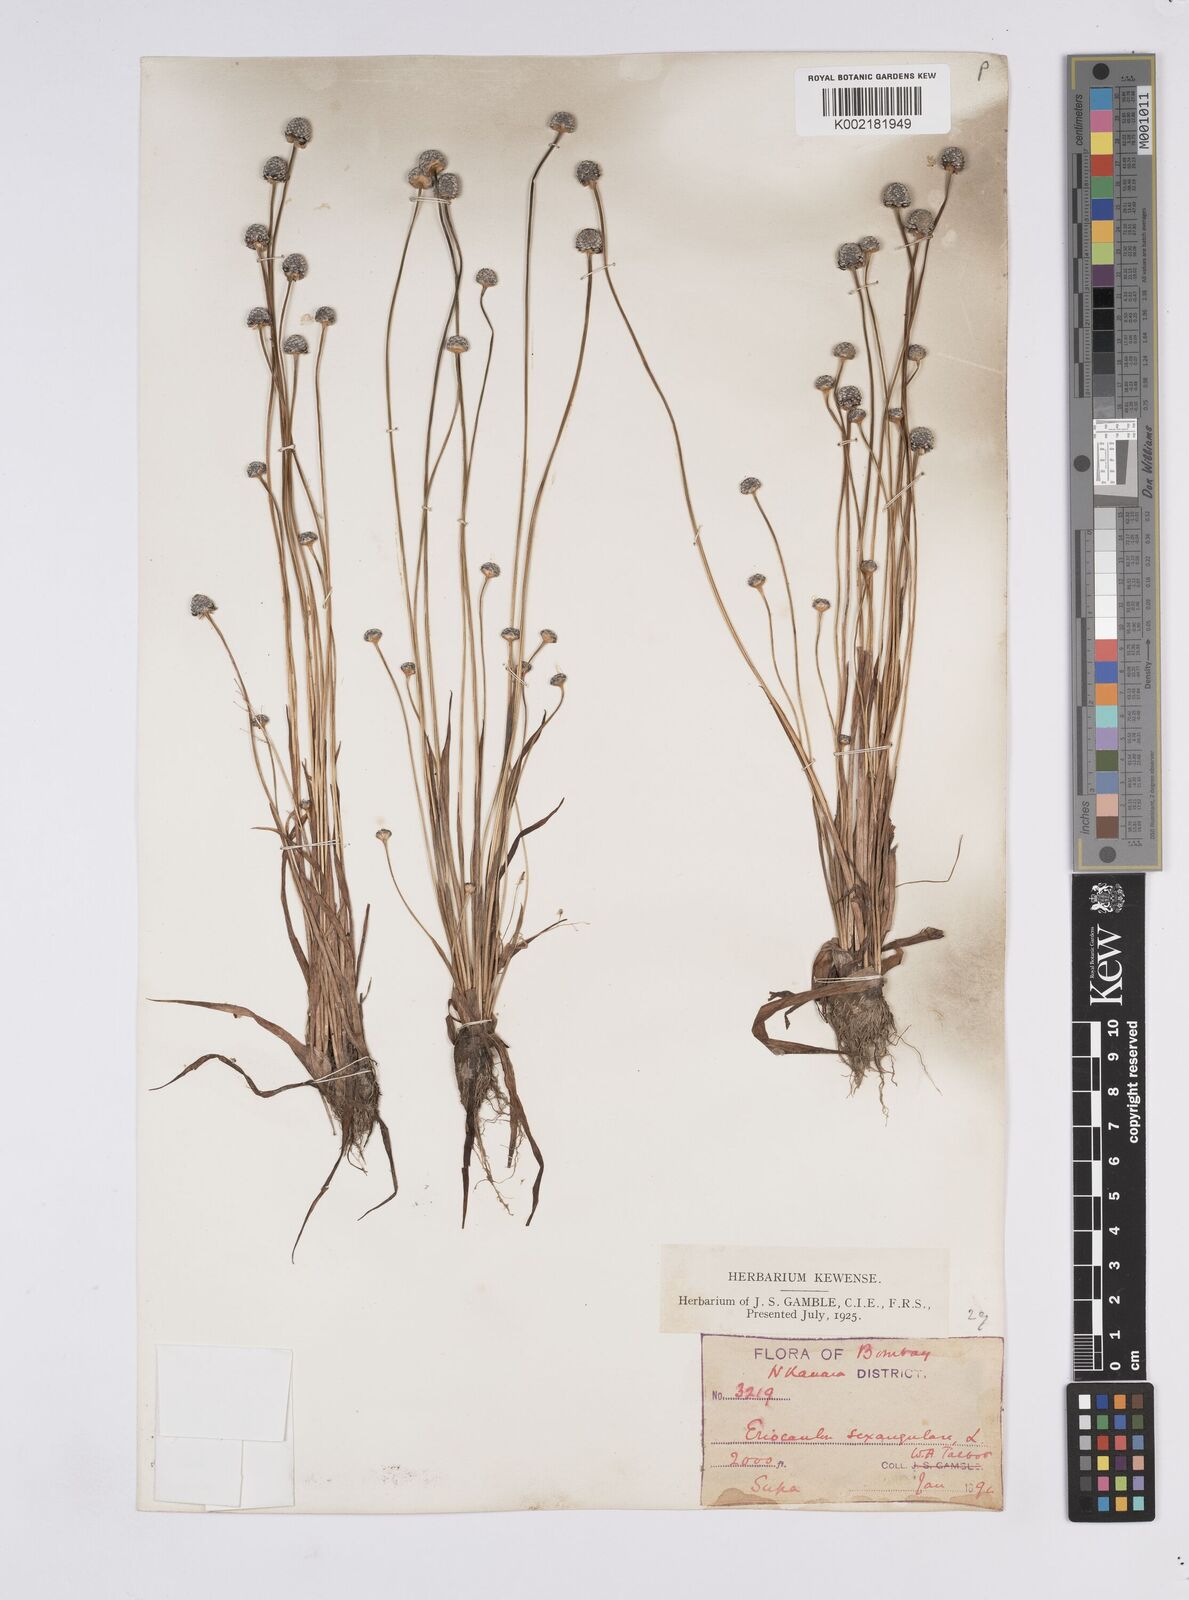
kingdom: Plantae
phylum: Tracheophyta
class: Liliopsida
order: Poales
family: Eriocaulaceae
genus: Eriocaulon
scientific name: Eriocaulon sexangulare
